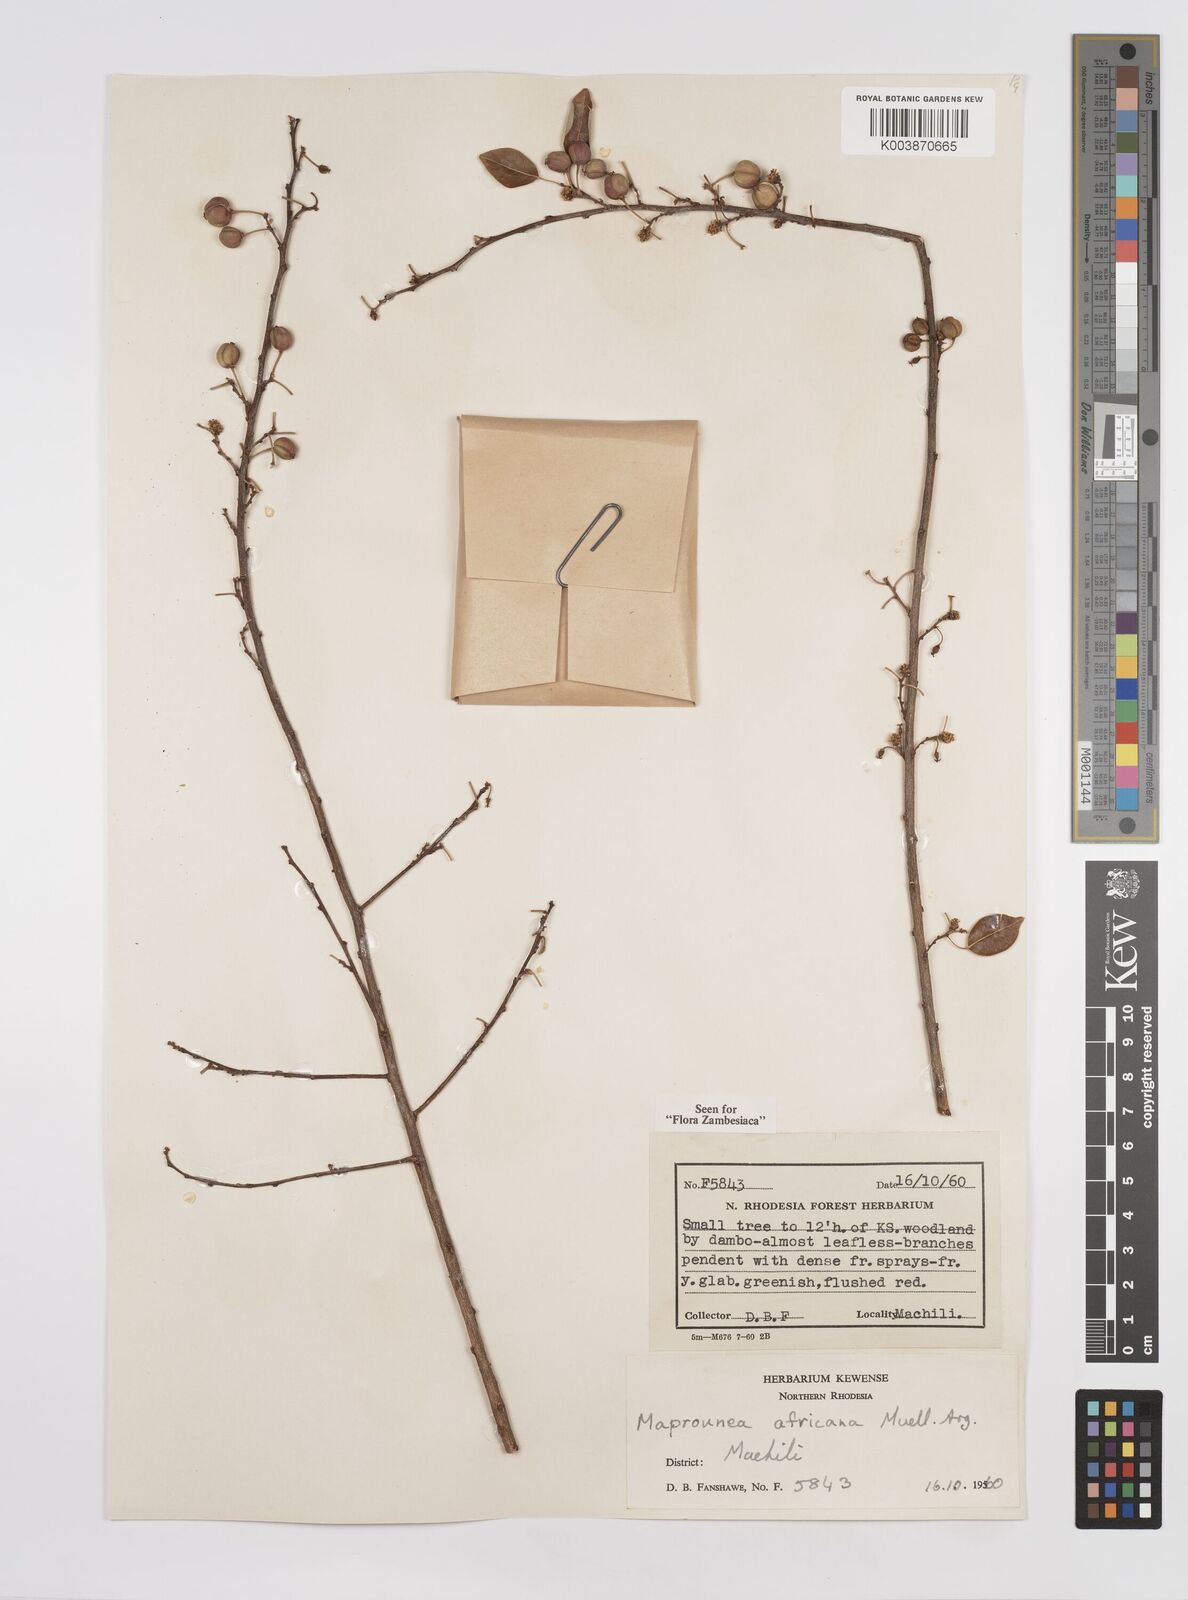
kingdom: Plantae
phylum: Tracheophyta
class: Magnoliopsida
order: Malpighiales
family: Euphorbiaceae
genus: Maprounea
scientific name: Maprounea africana
